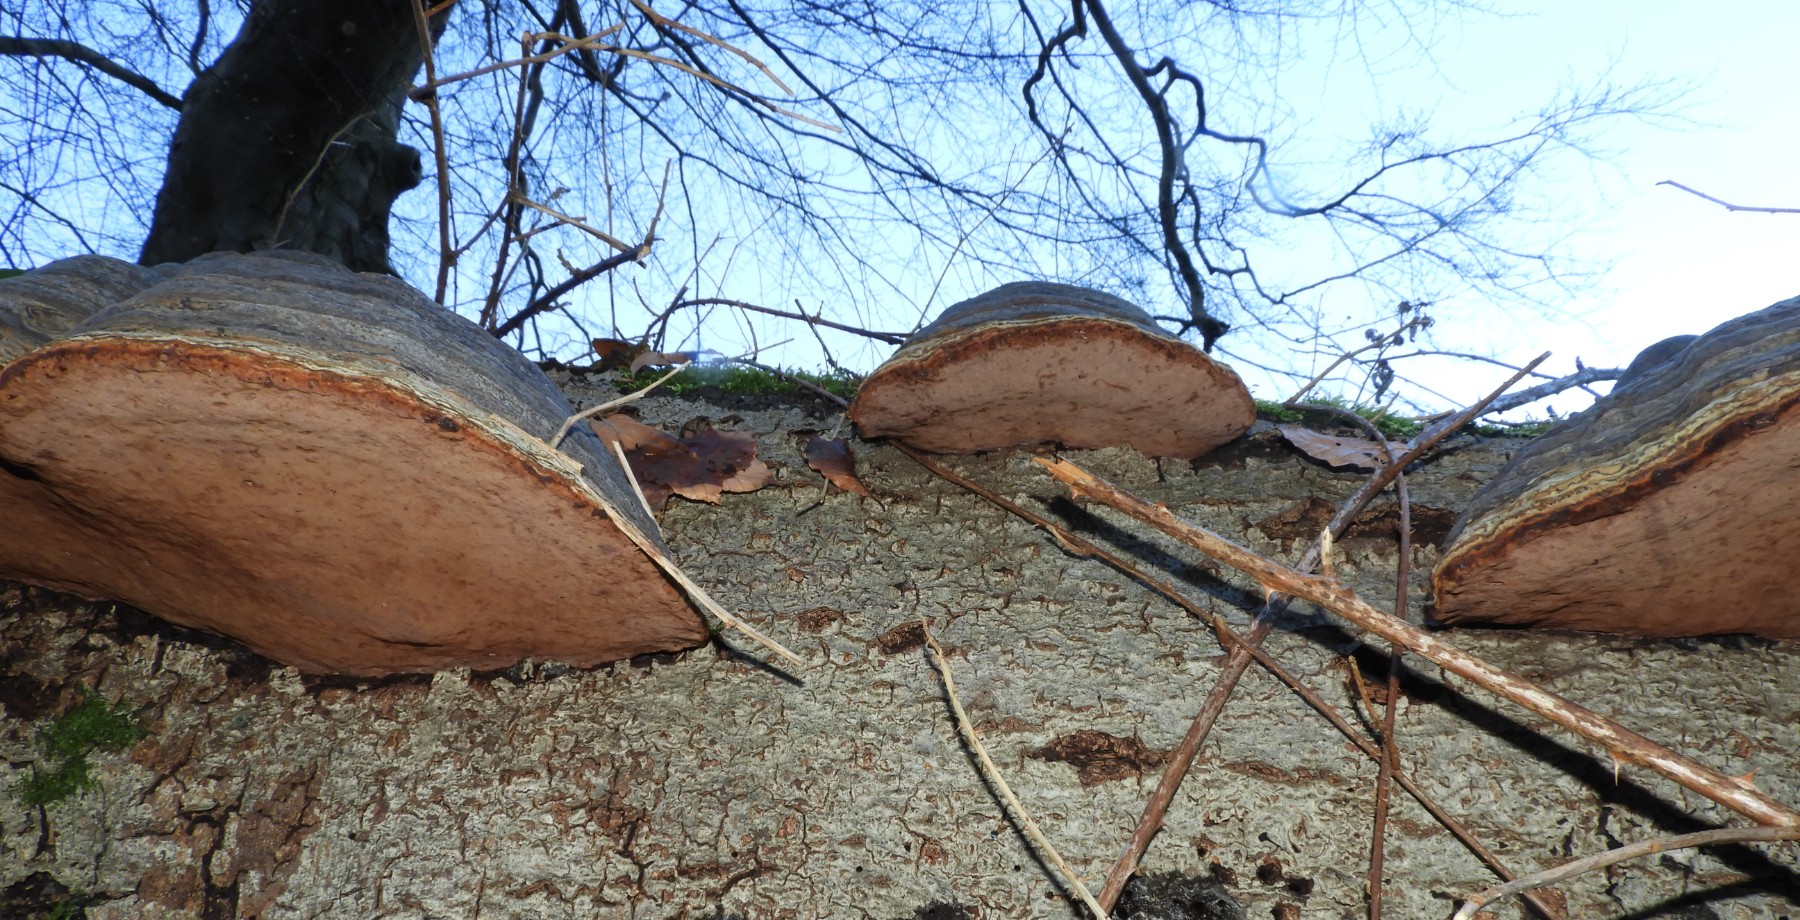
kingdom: Fungi
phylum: Basidiomycota
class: Agaricomycetes
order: Polyporales
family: Polyporaceae
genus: Fomes
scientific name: Fomes fomentarius
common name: tøndersvamp
